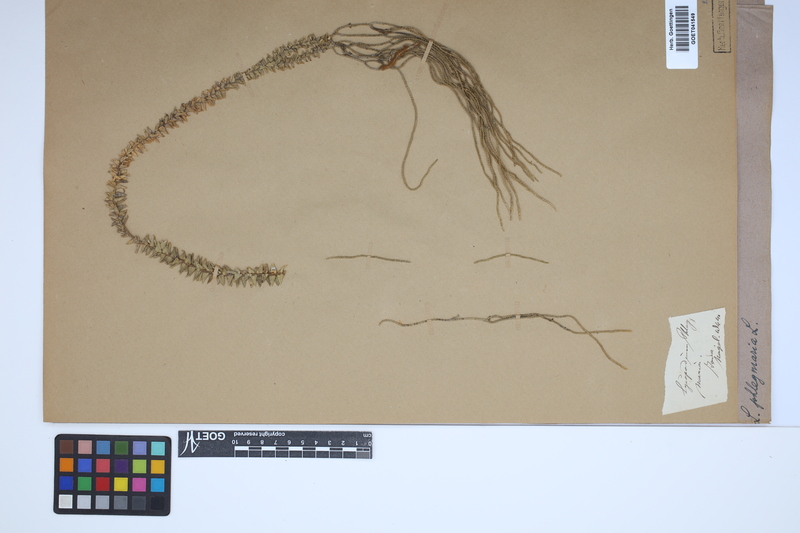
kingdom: Plantae
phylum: Tracheophyta
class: Lycopodiopsida
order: Lycopodiales
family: Lycopodiaceae
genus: Phlegmariurus
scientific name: Phlegmariurus phlegmaria
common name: Coarse tassel-fern
